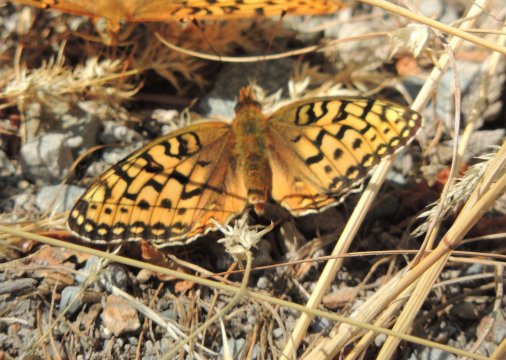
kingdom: Animalia
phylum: Arthropoda
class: Insecta
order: Lepidoptera
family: Nymphalidae
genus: Speyeria
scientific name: Speyeria mormonia
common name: Mormon Fritillary
